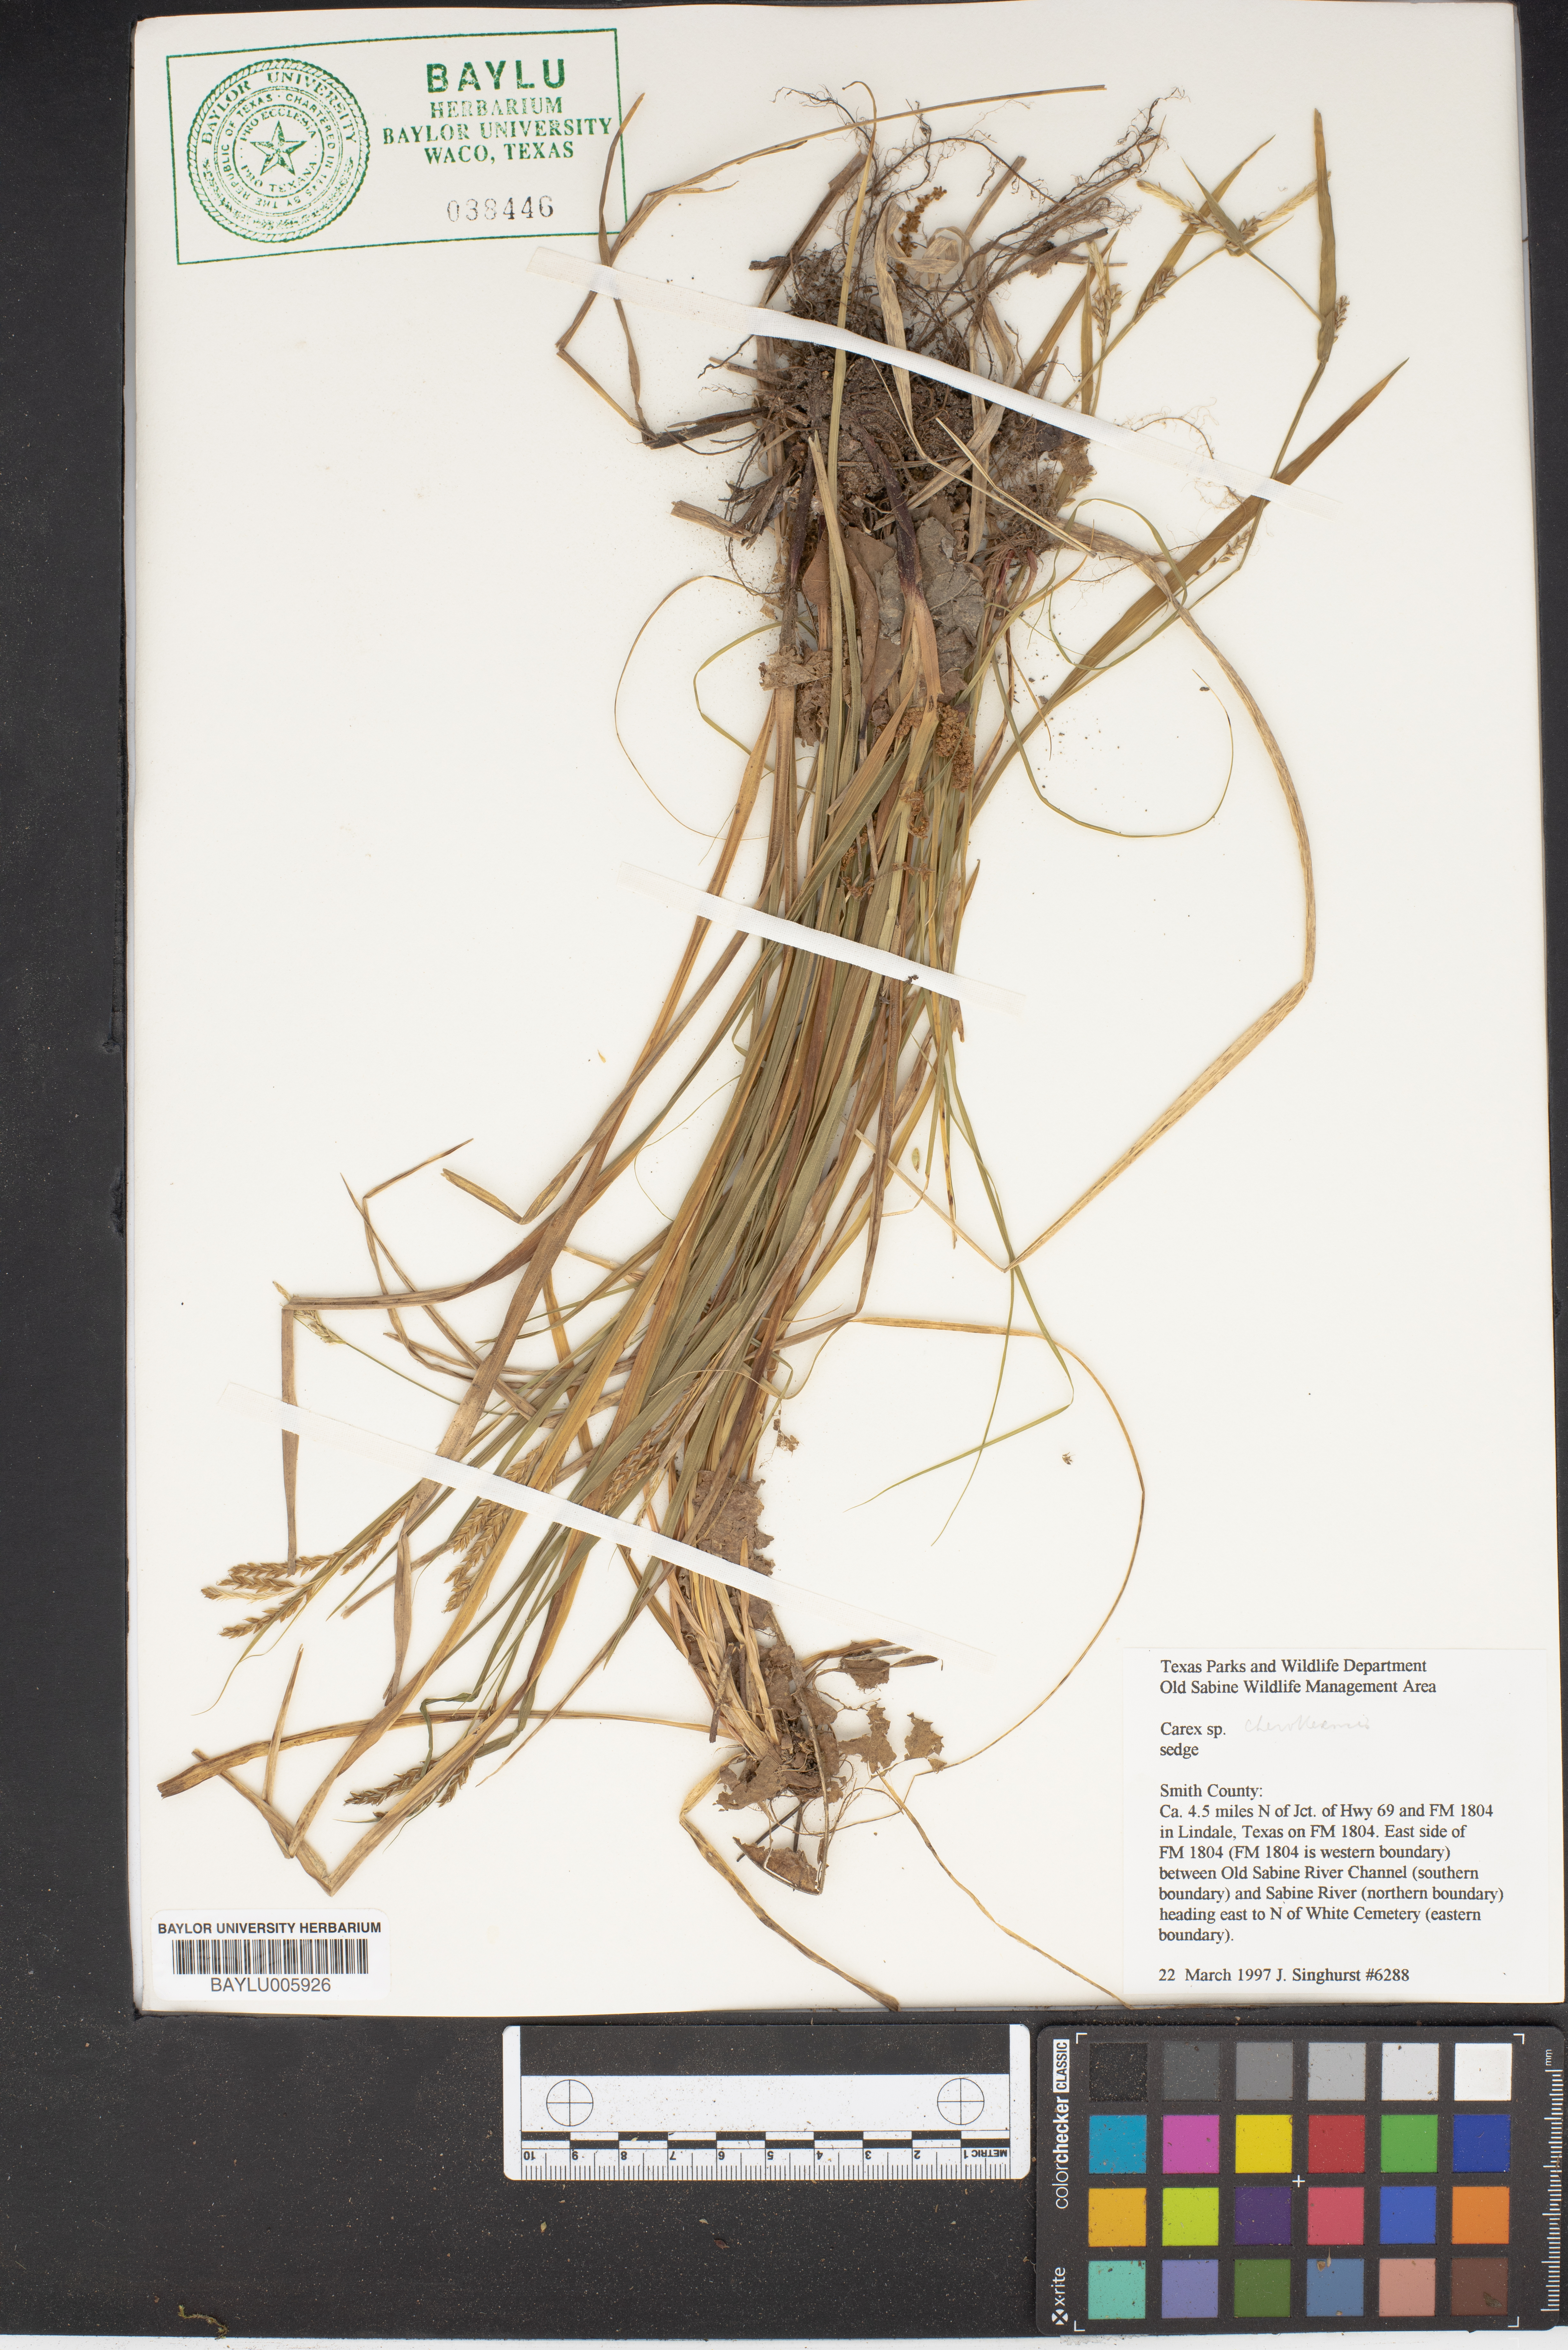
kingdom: Plantae
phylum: Tracheophyta
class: Liliopsida
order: Poales
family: Cyperaceae
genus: Carex
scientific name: Carex duriuscula
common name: Involute-leaved sedge
